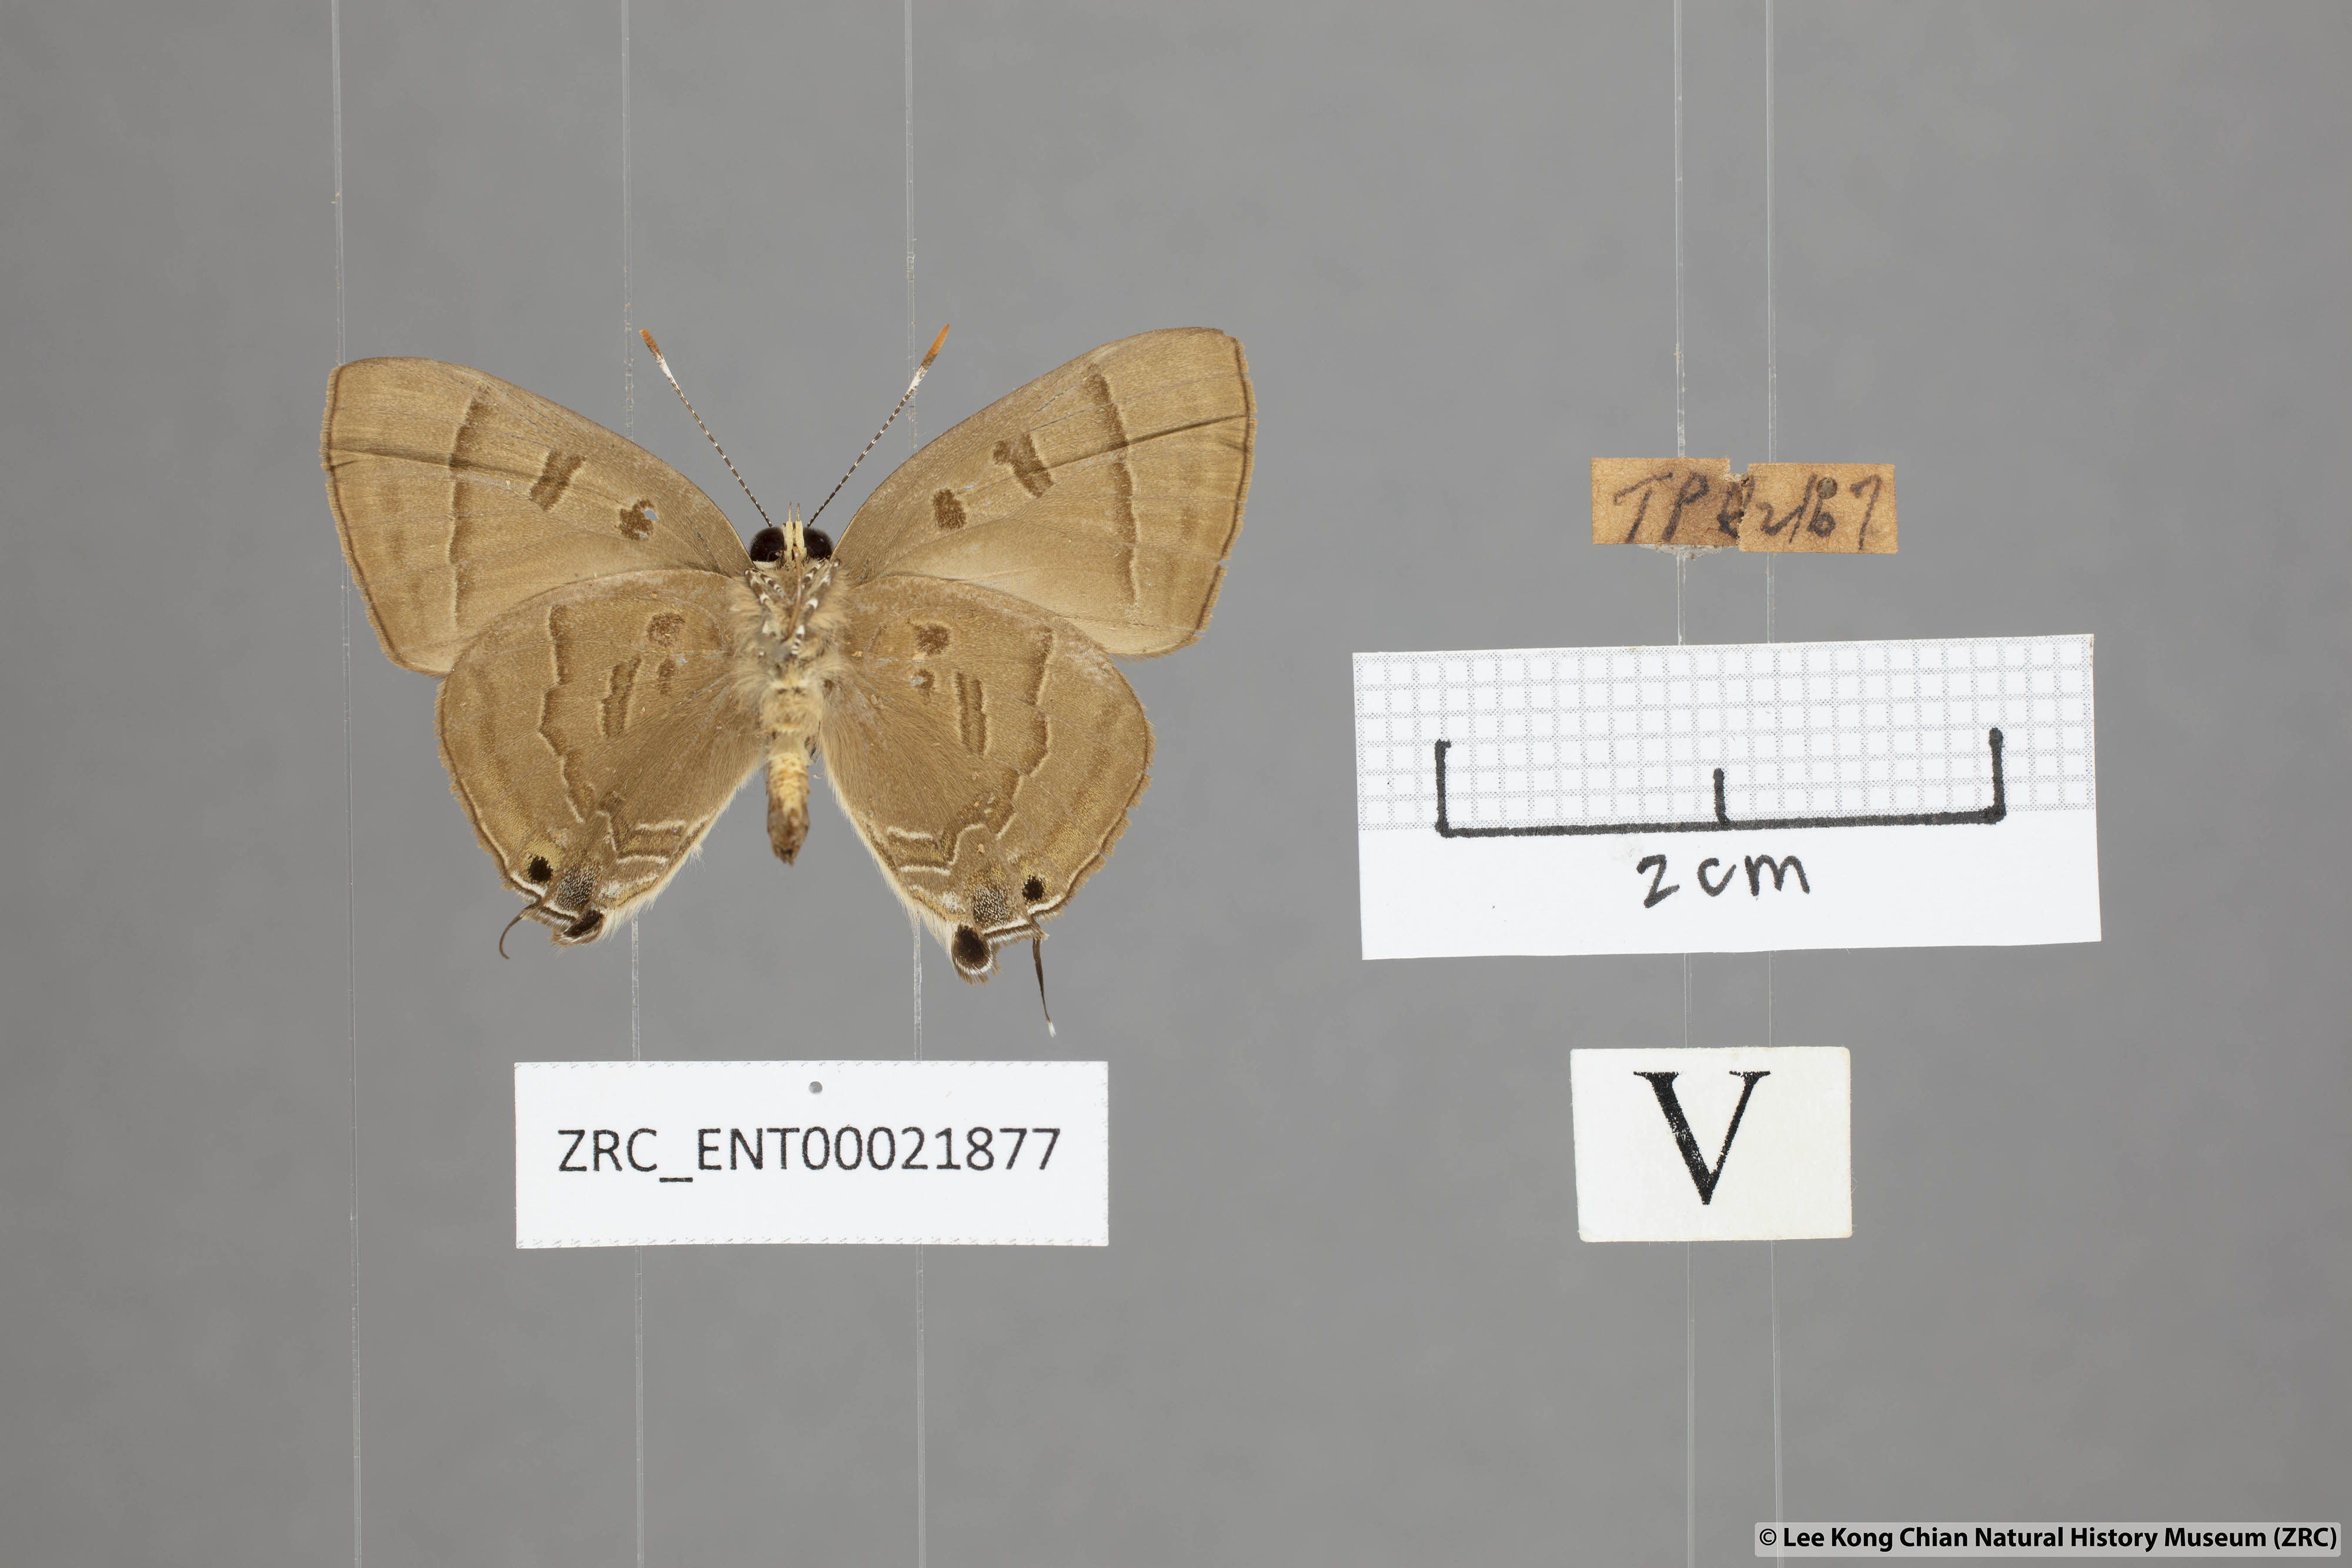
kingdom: Animalia
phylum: Arthropoda
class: Insecta
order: Lepidoptera
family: Lycaenidae
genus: Rapala
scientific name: Rapala pheretima
